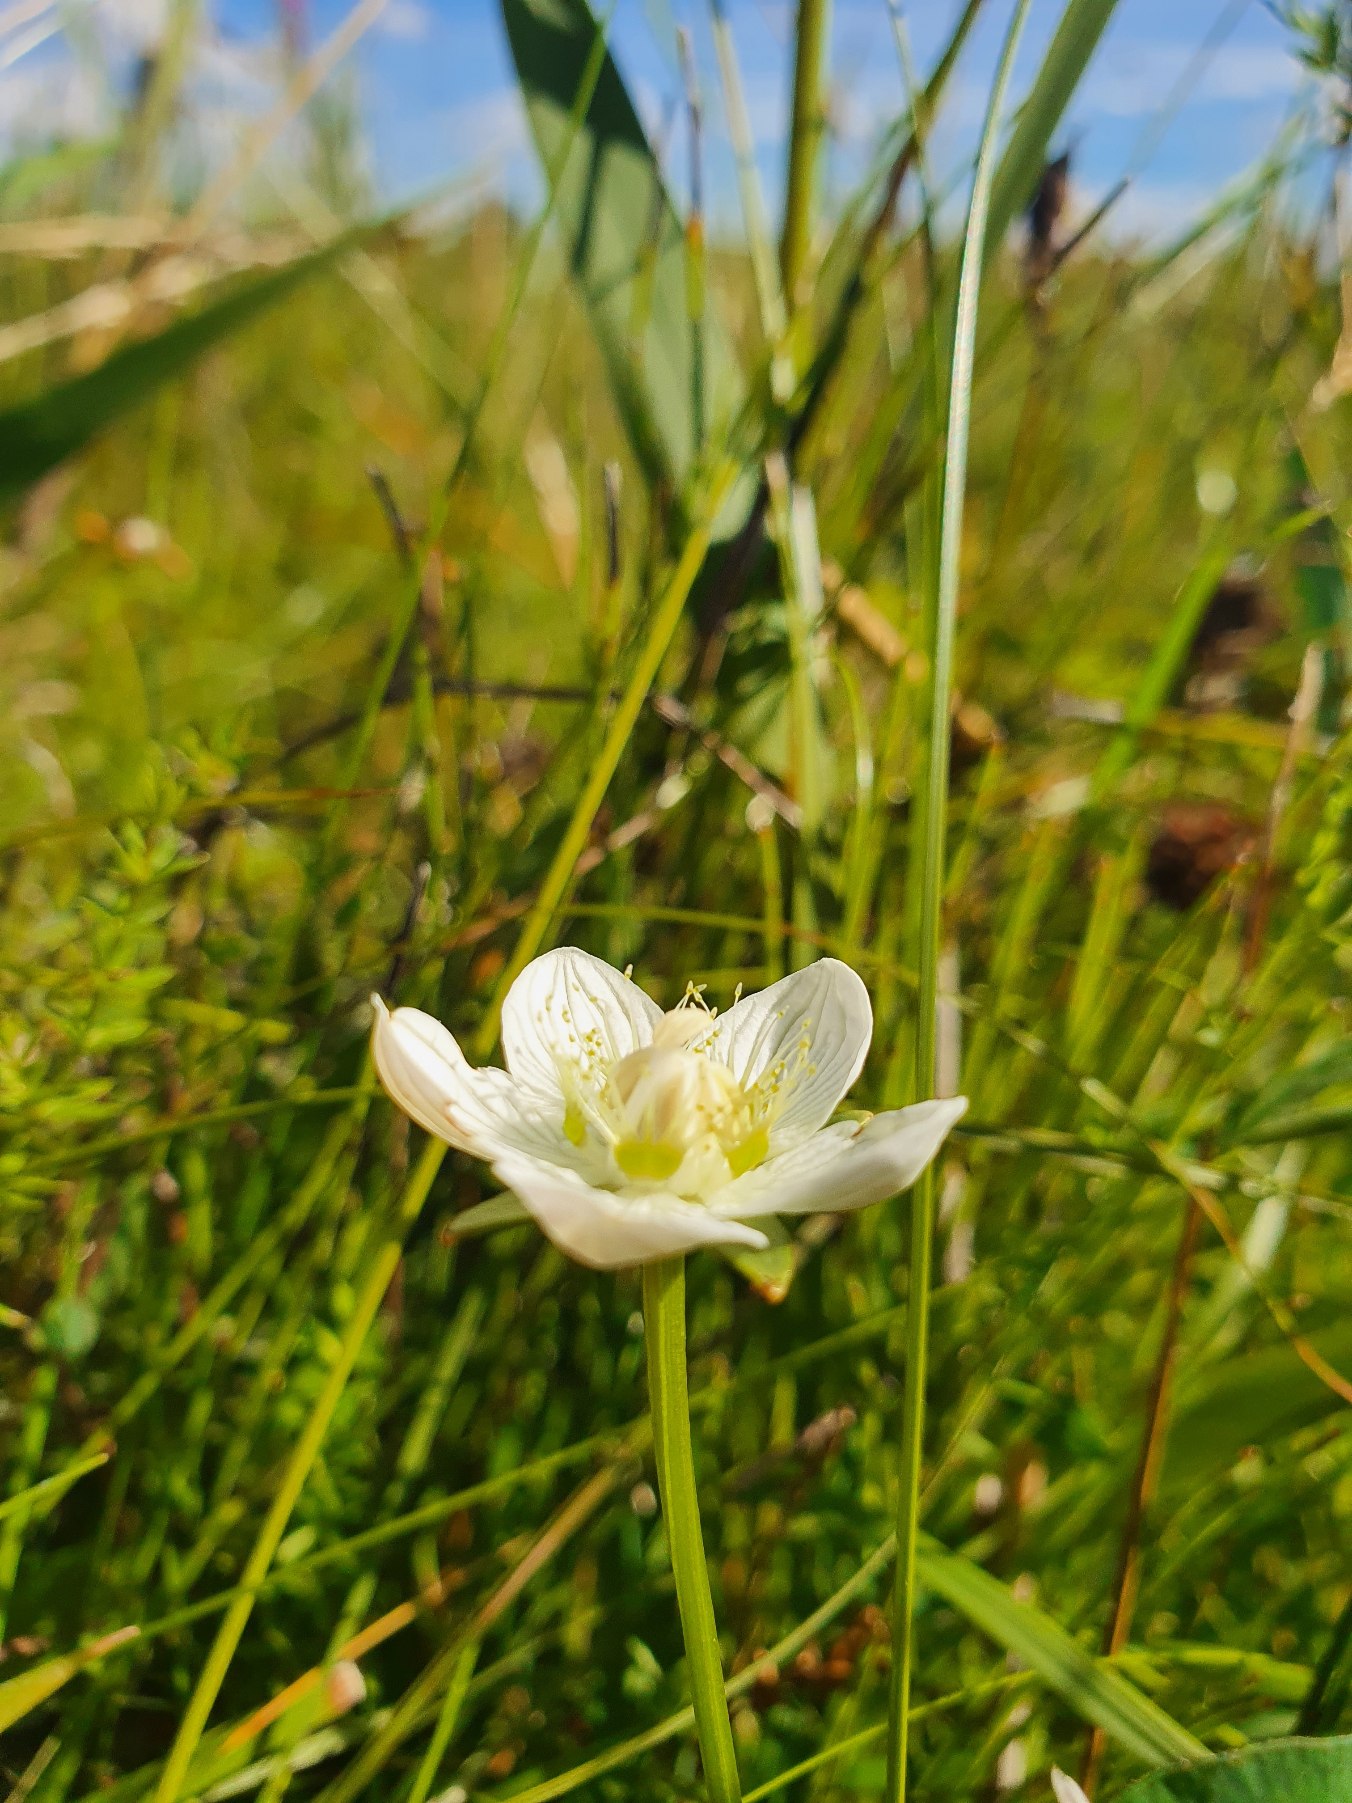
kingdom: Plantae
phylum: Tracheophyta
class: Magnoliopsida
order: Celastrales
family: Parnassiaceae
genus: Parnassia
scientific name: Parnassia palustris
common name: Leverurt
